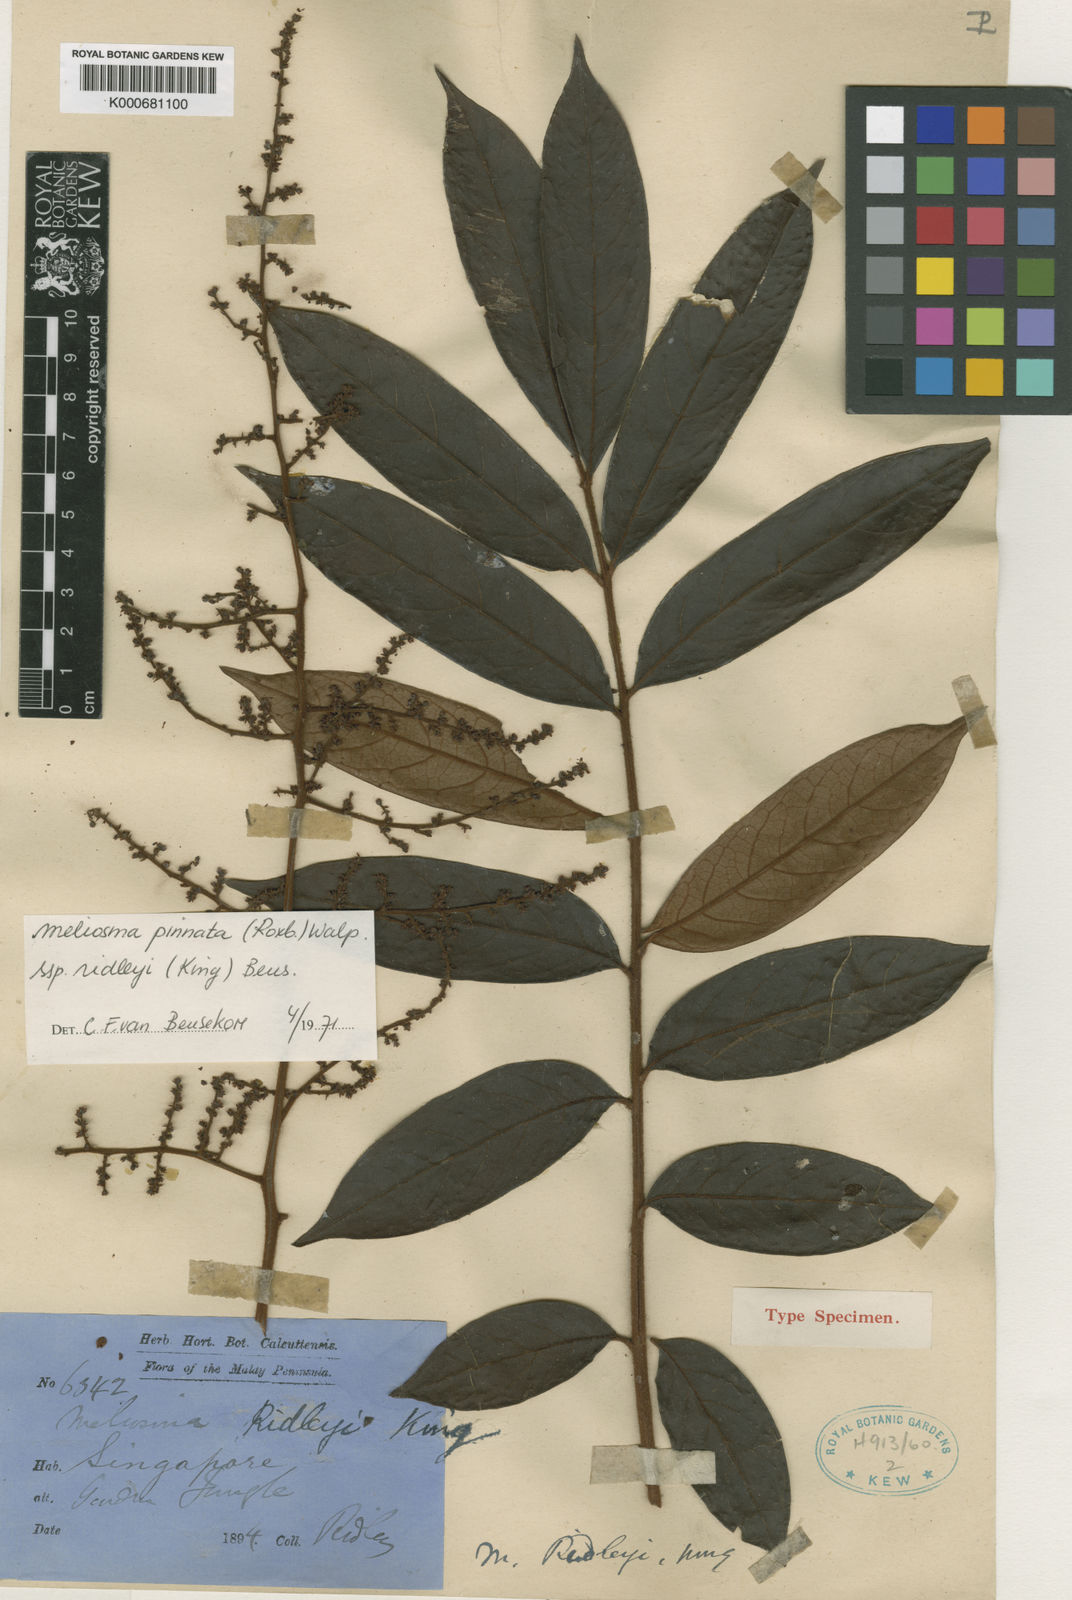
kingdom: Plantae
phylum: Tracheophyta
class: Magnoliopsida
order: Proteales
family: Sabiaceae
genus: Meliosma
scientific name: Meliosma pinnata
